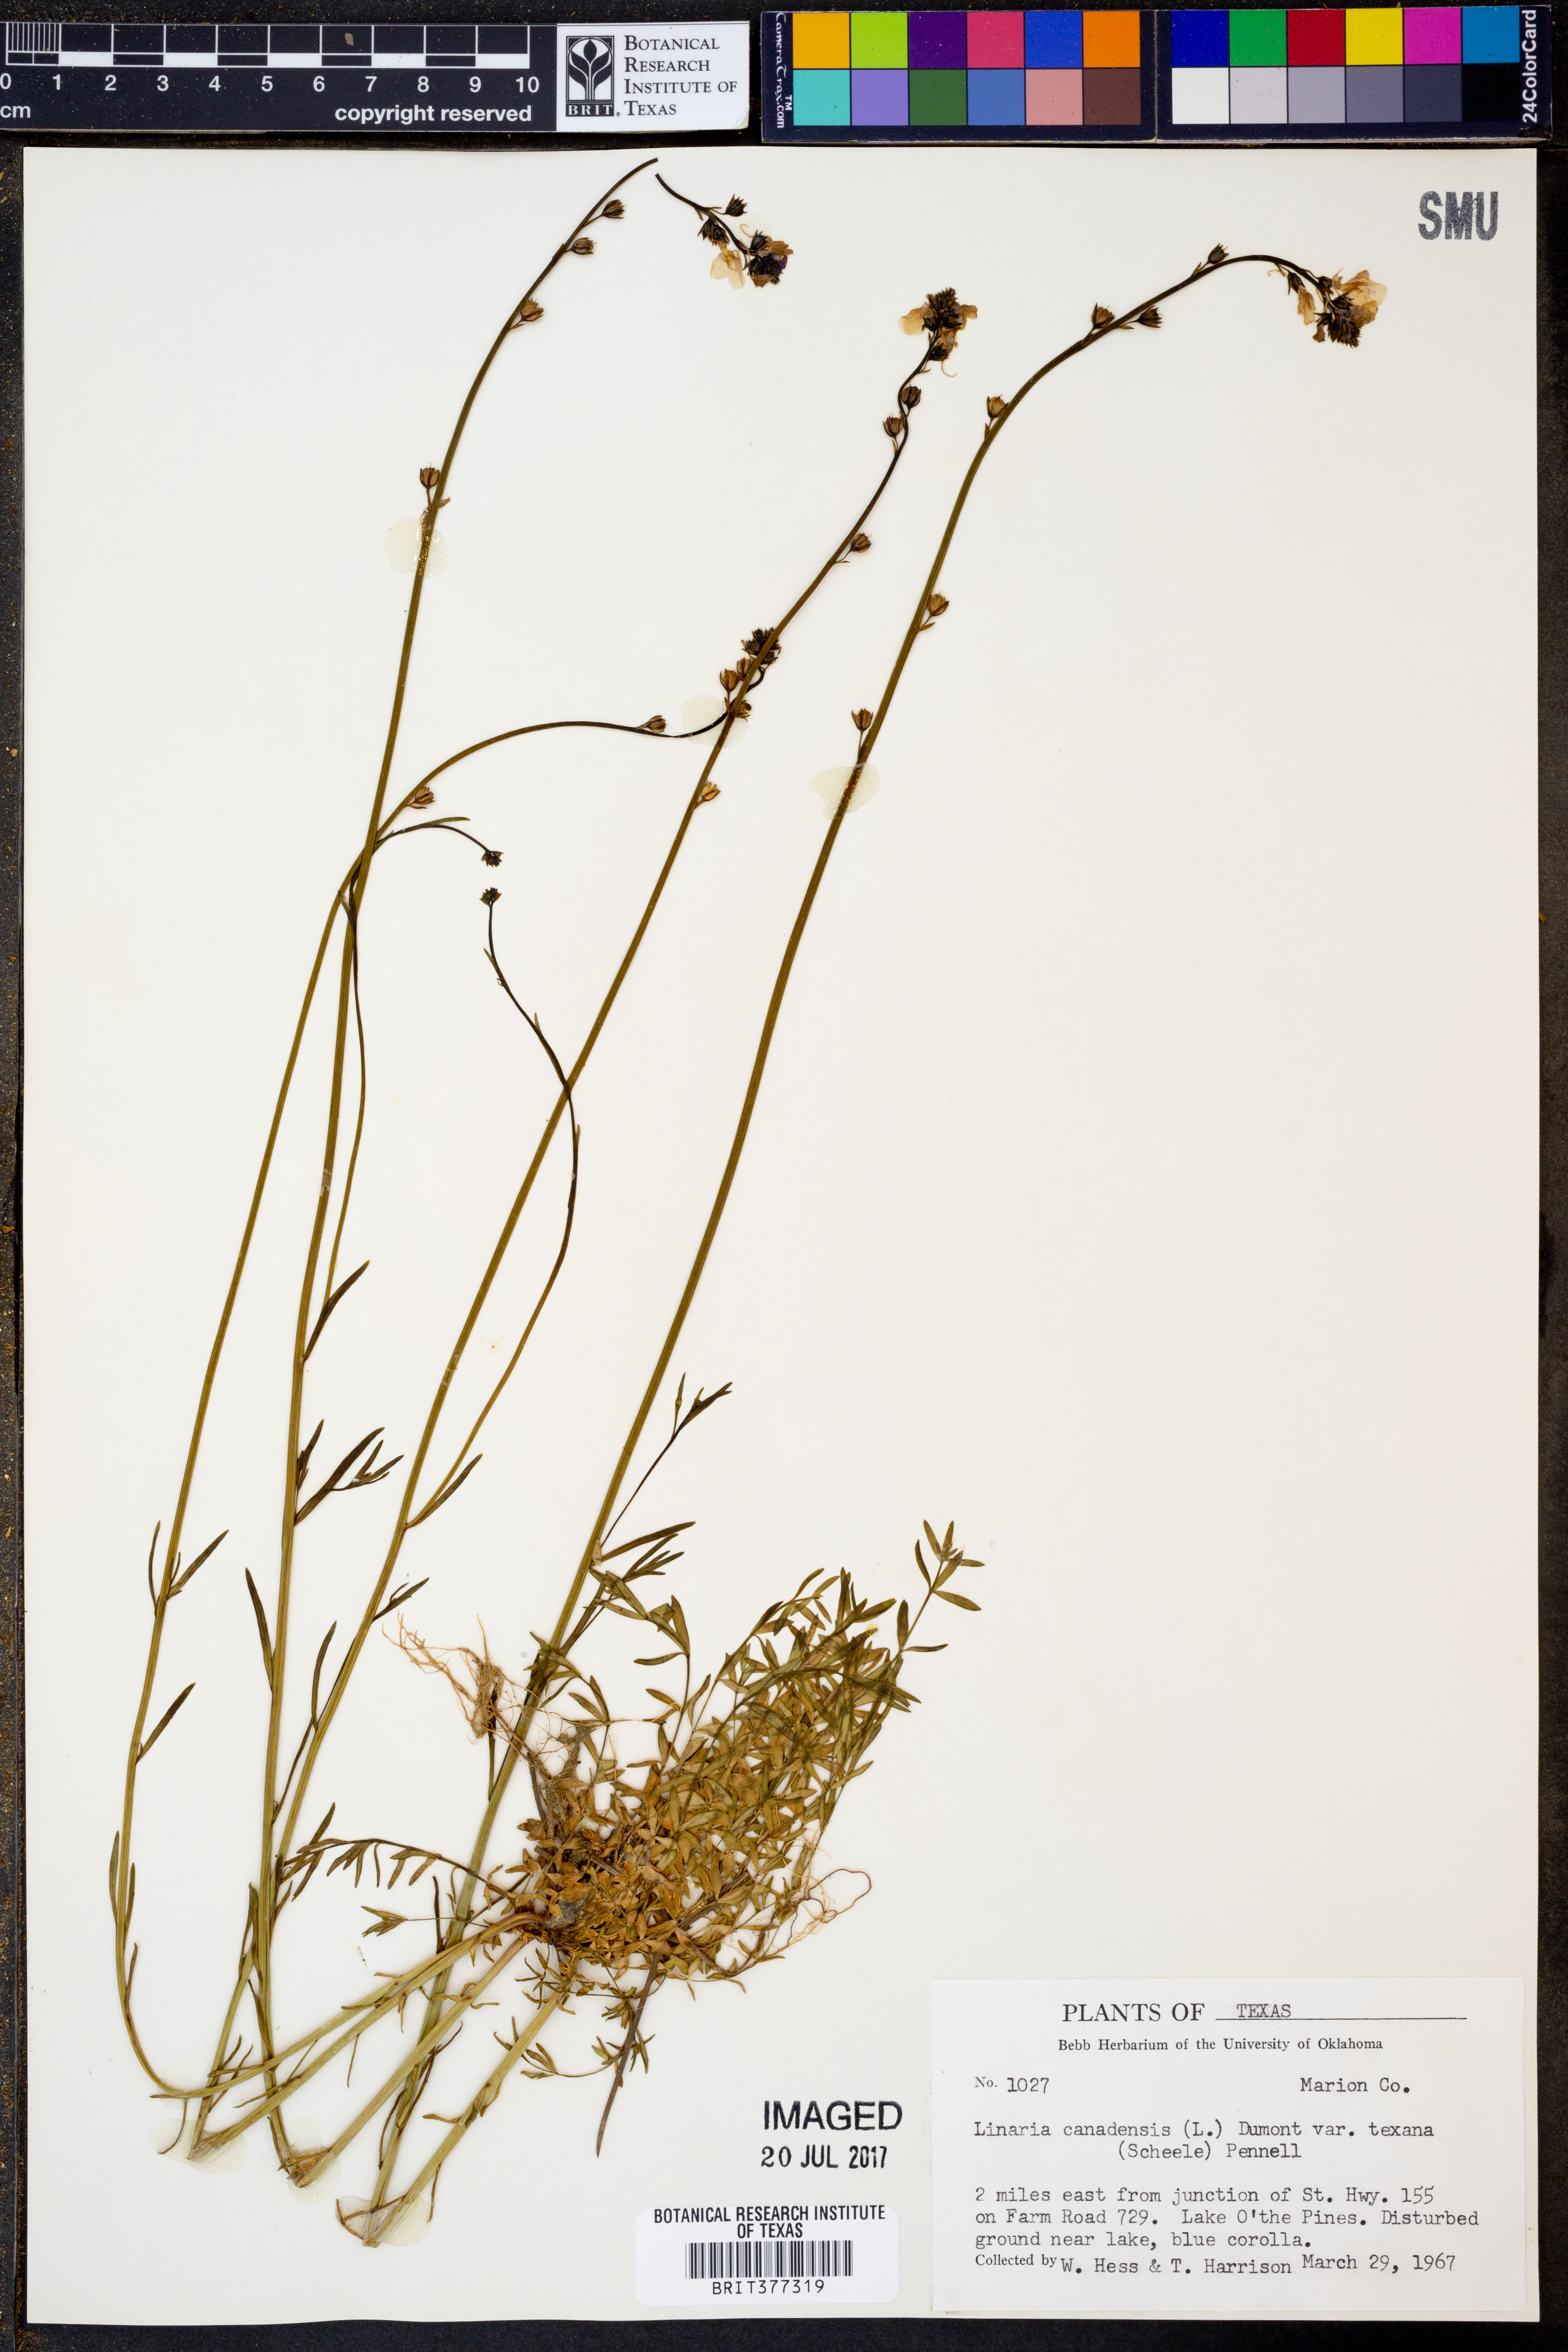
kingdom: Plantae
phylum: Tracheophyta
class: Magnoliopsida
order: Lamiales
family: Plantaginaceae
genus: Nuttallanthus
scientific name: Nuttallanthus texanus
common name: Texas toadflax
